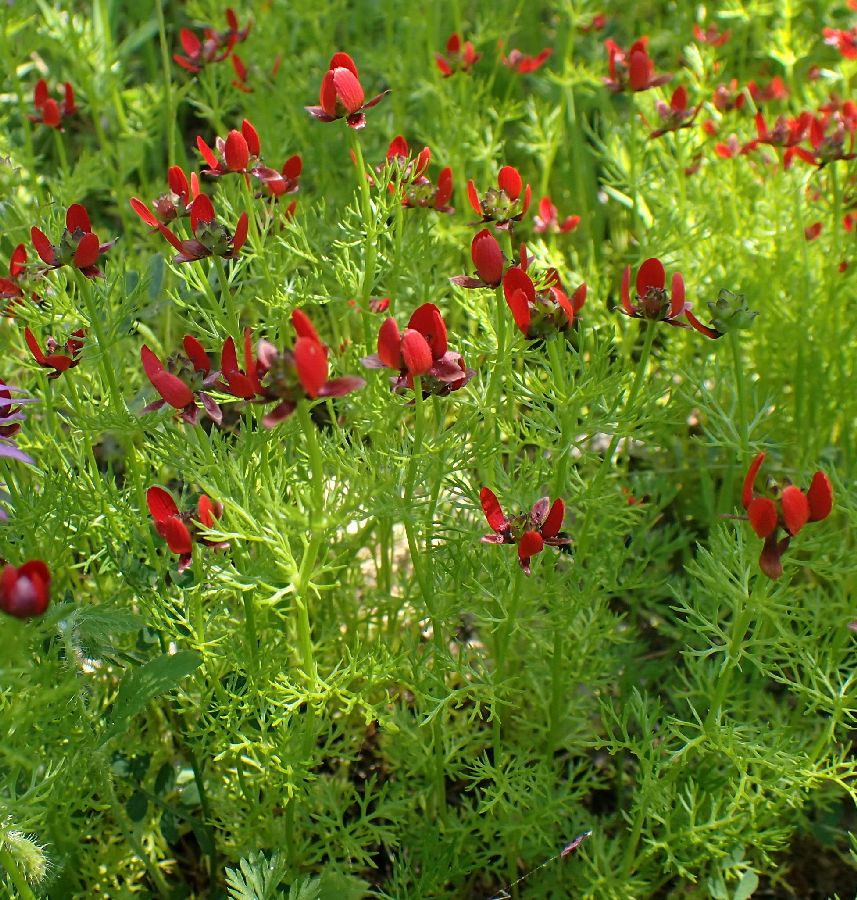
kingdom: Plantae
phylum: Tracheophyta
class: Magnoliopsida
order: Ranunculales
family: Ranunculaceae
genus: Adonis
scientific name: Adonis microcarpa
